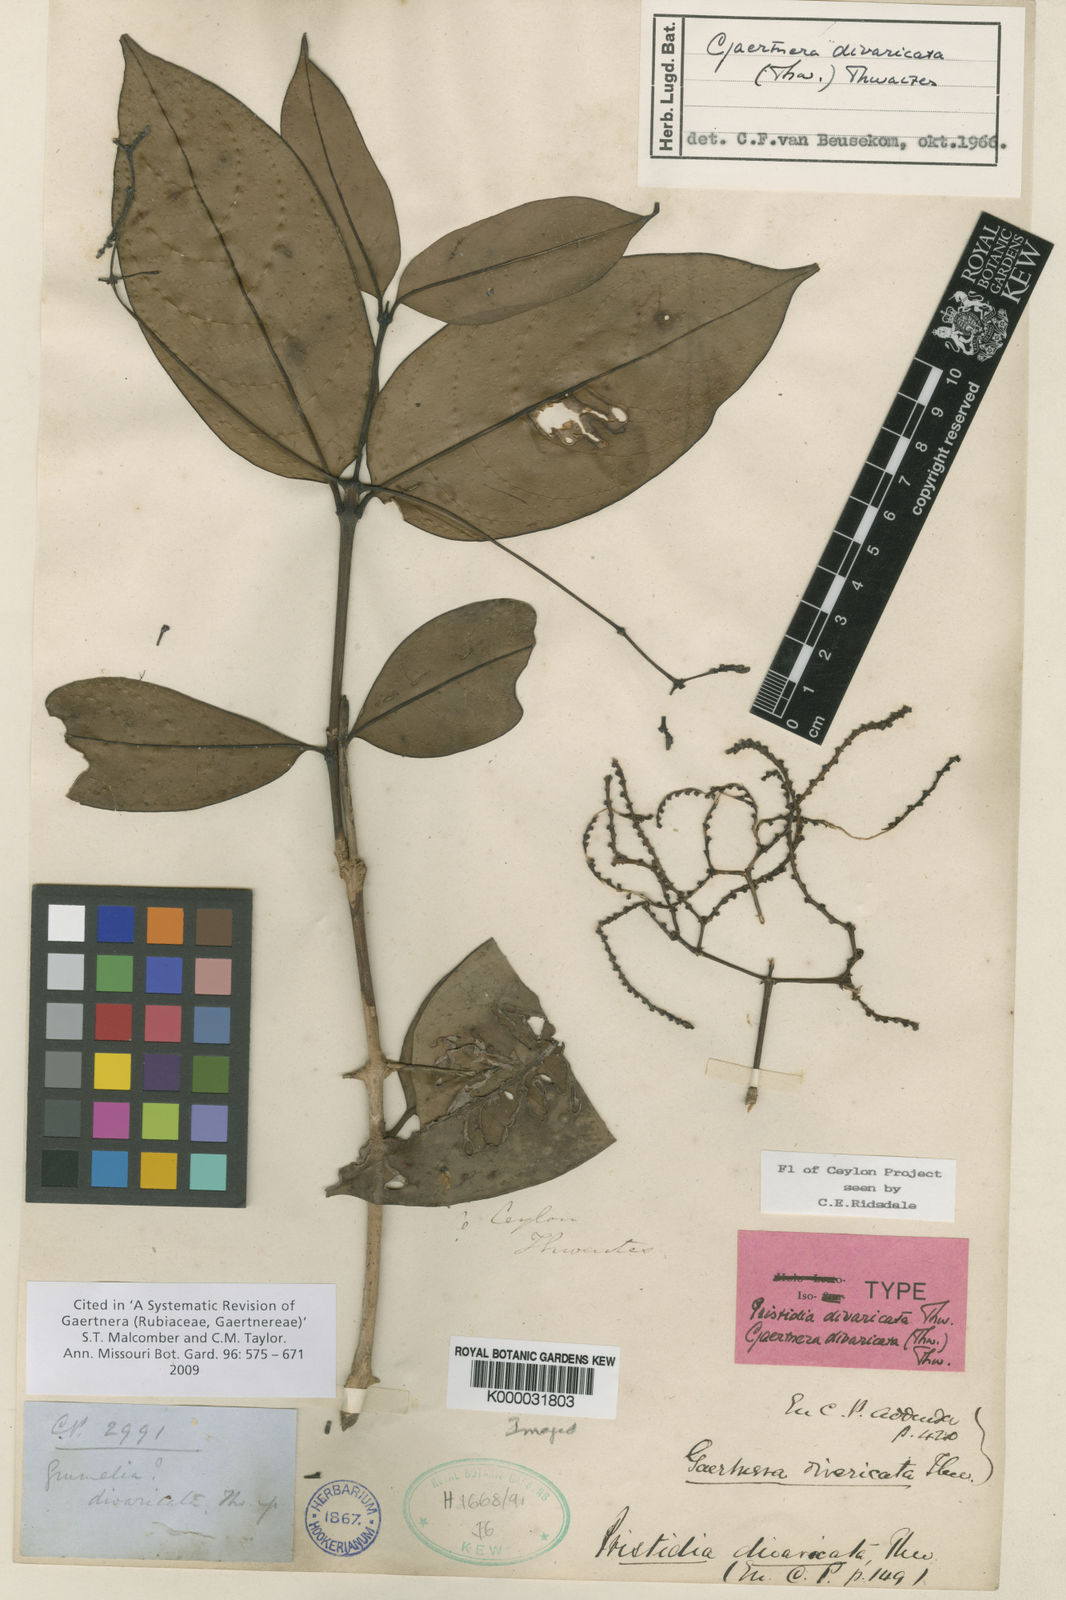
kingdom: Plantae
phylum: Tracheophyta
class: Magnoliopsida
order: Gentianales
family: Rubiaceae
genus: Gaertnera
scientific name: Gaertnera divaricata
